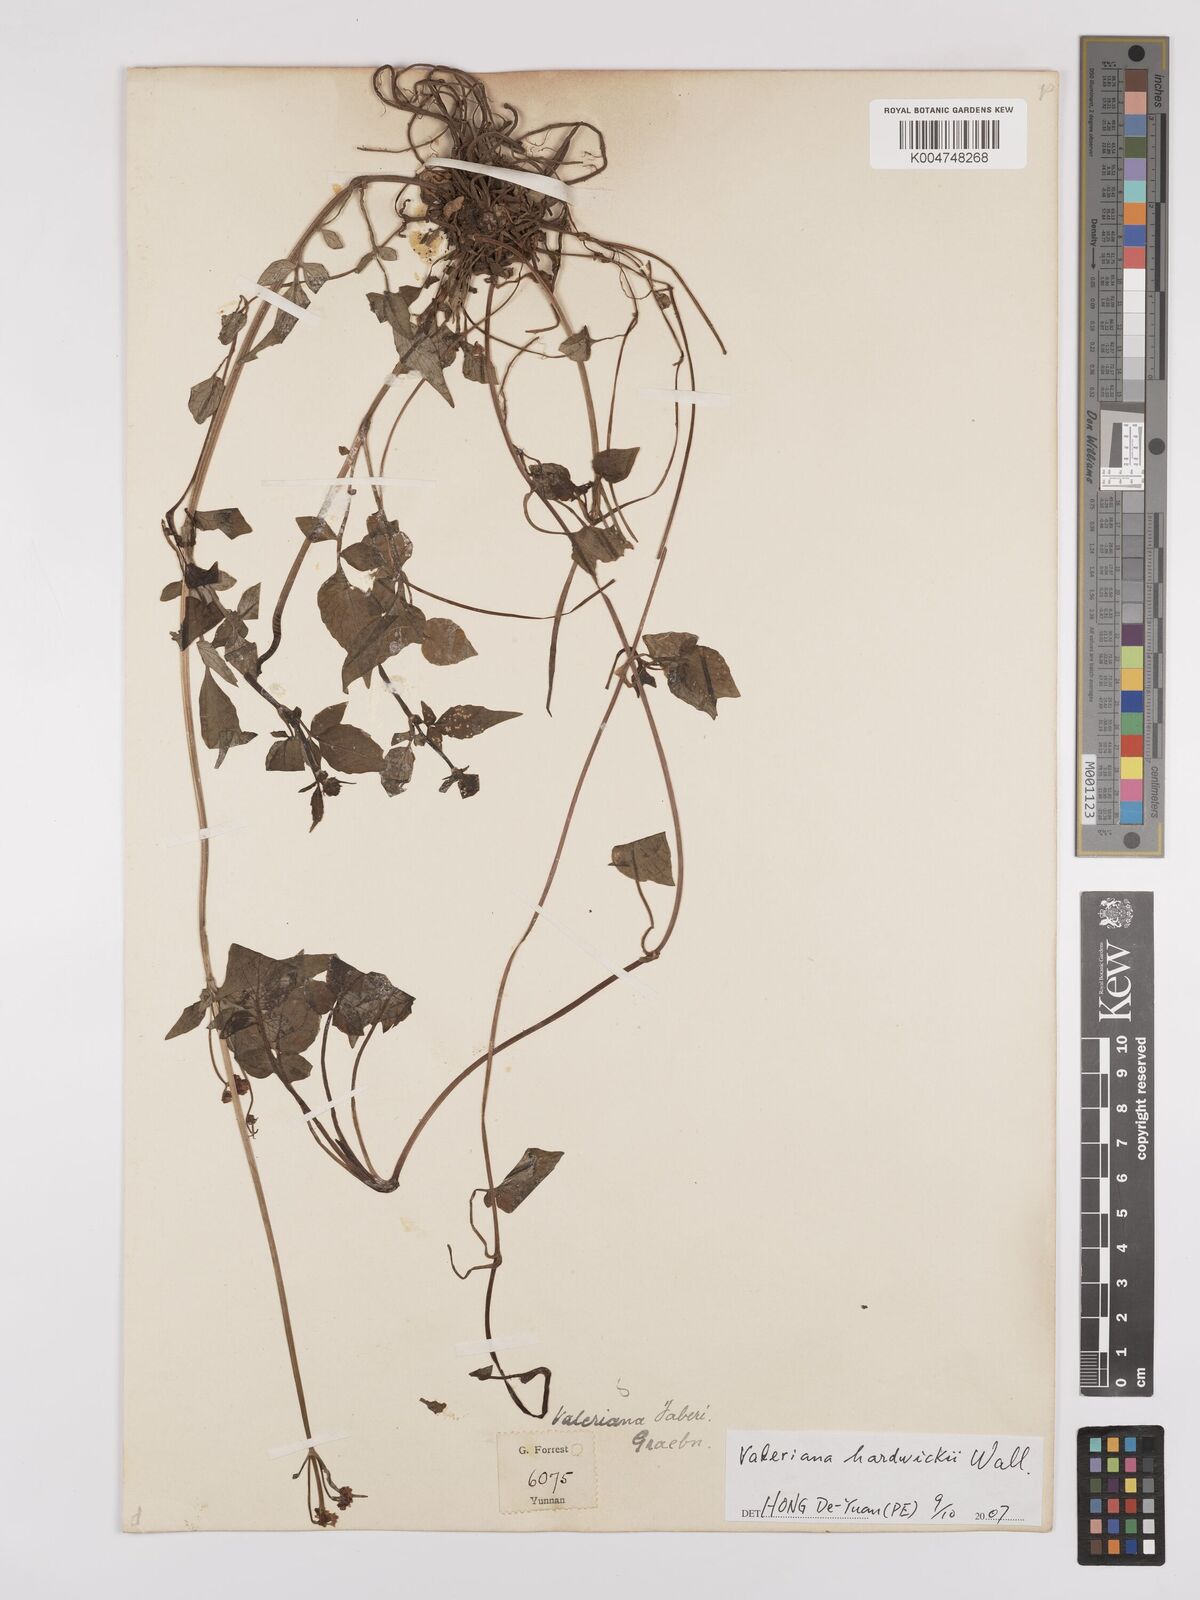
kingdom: Plantae
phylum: Tracheophyta
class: Magnoliopsida
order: Dipsacales
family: Caprifoliaceae
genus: Valeriana
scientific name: Valeriana hardwickei
